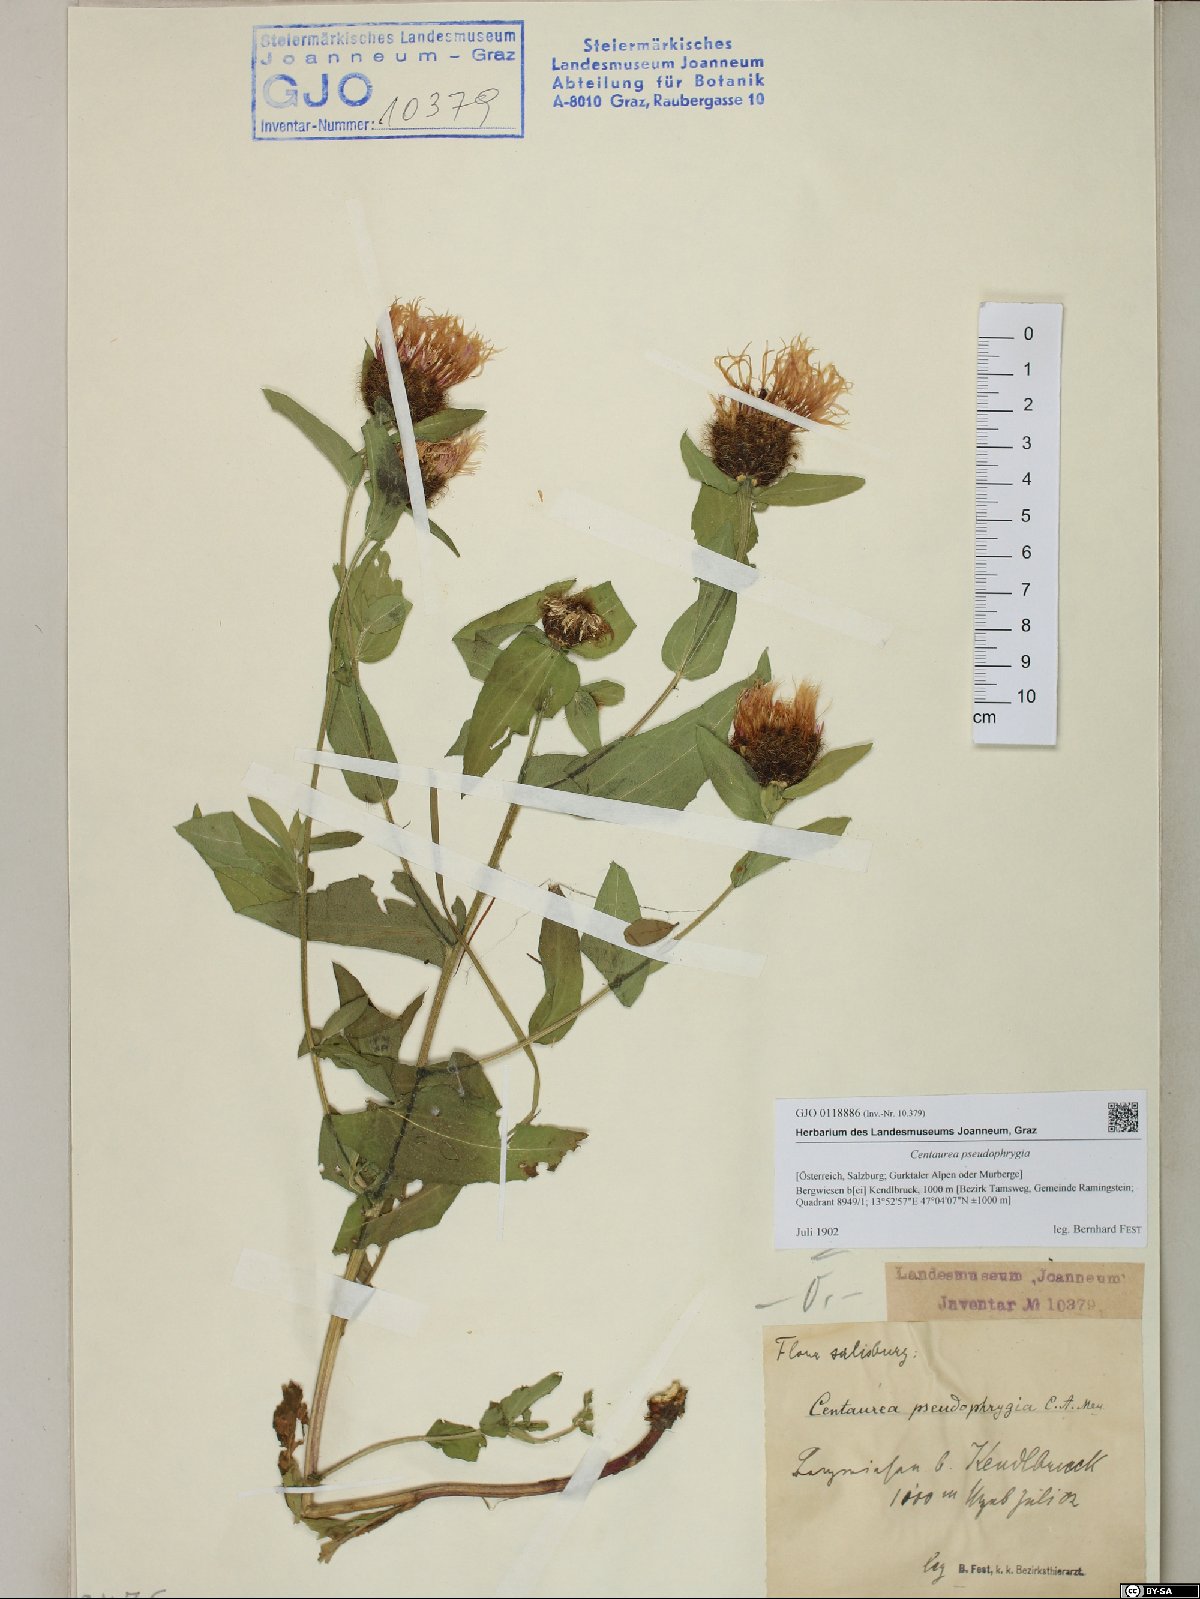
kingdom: Plantae
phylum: Tracheophyta
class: Magnoliopsida
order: Asterales
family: Asteraceae
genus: Centaurea
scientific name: Centaurea pseudophrygia
